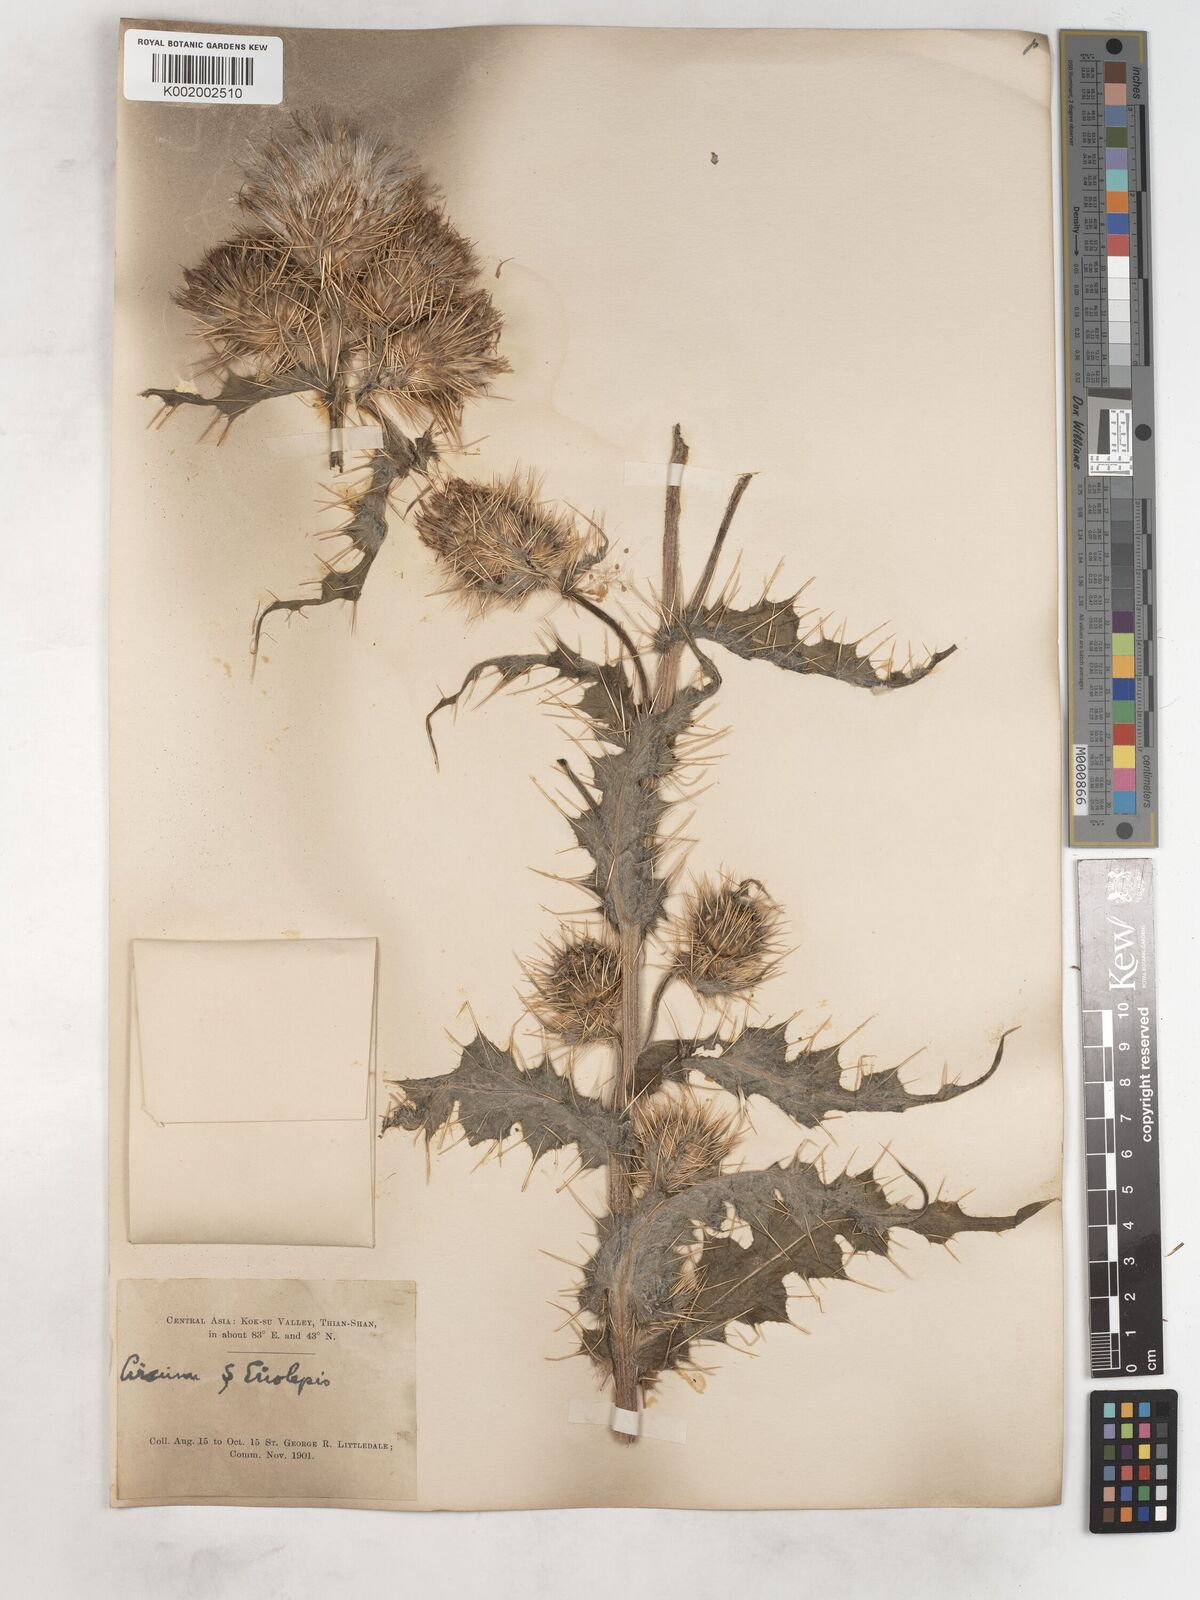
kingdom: Plantae
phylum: Tracheophyta
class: Magnoliopsida
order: Asterales
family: Asteraceae
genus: Cirsium
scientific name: Cirsium wallichii
